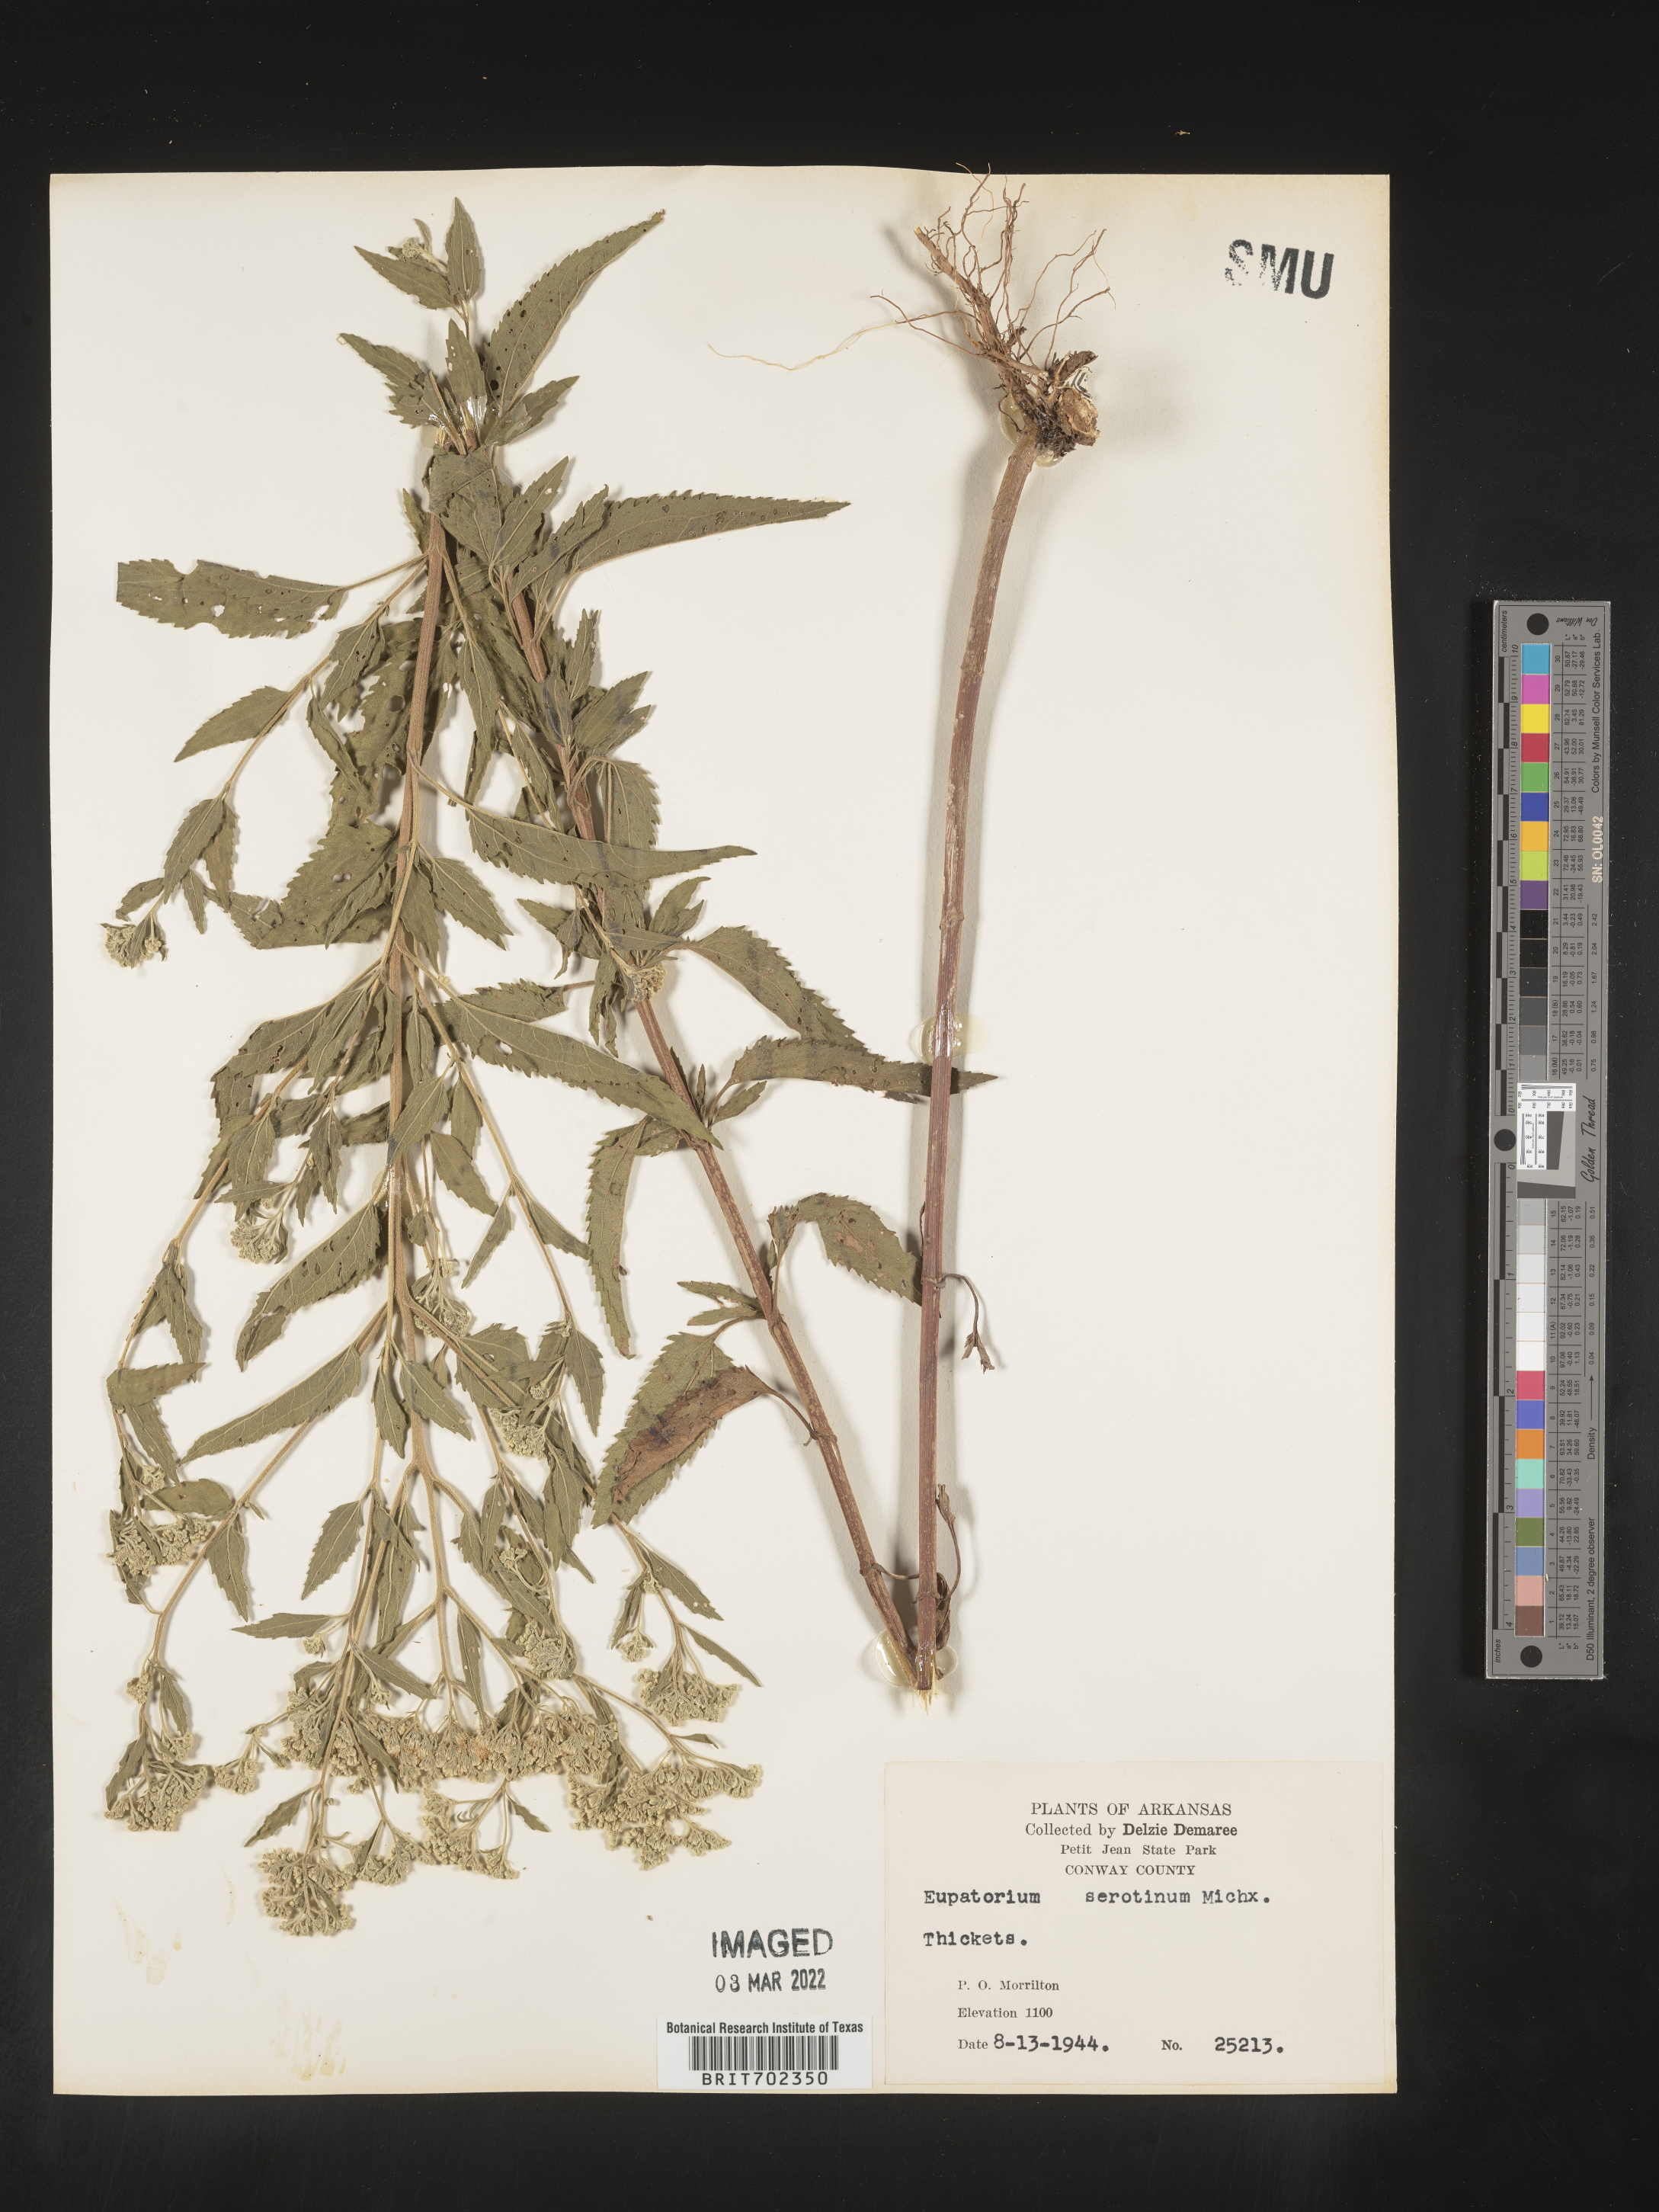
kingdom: Plantae
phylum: Tracheophyta
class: Magnoliopsida
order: Asterales
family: Asteraceae
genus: Eupatorium
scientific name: Eupatorium serotinum
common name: Late boneset
